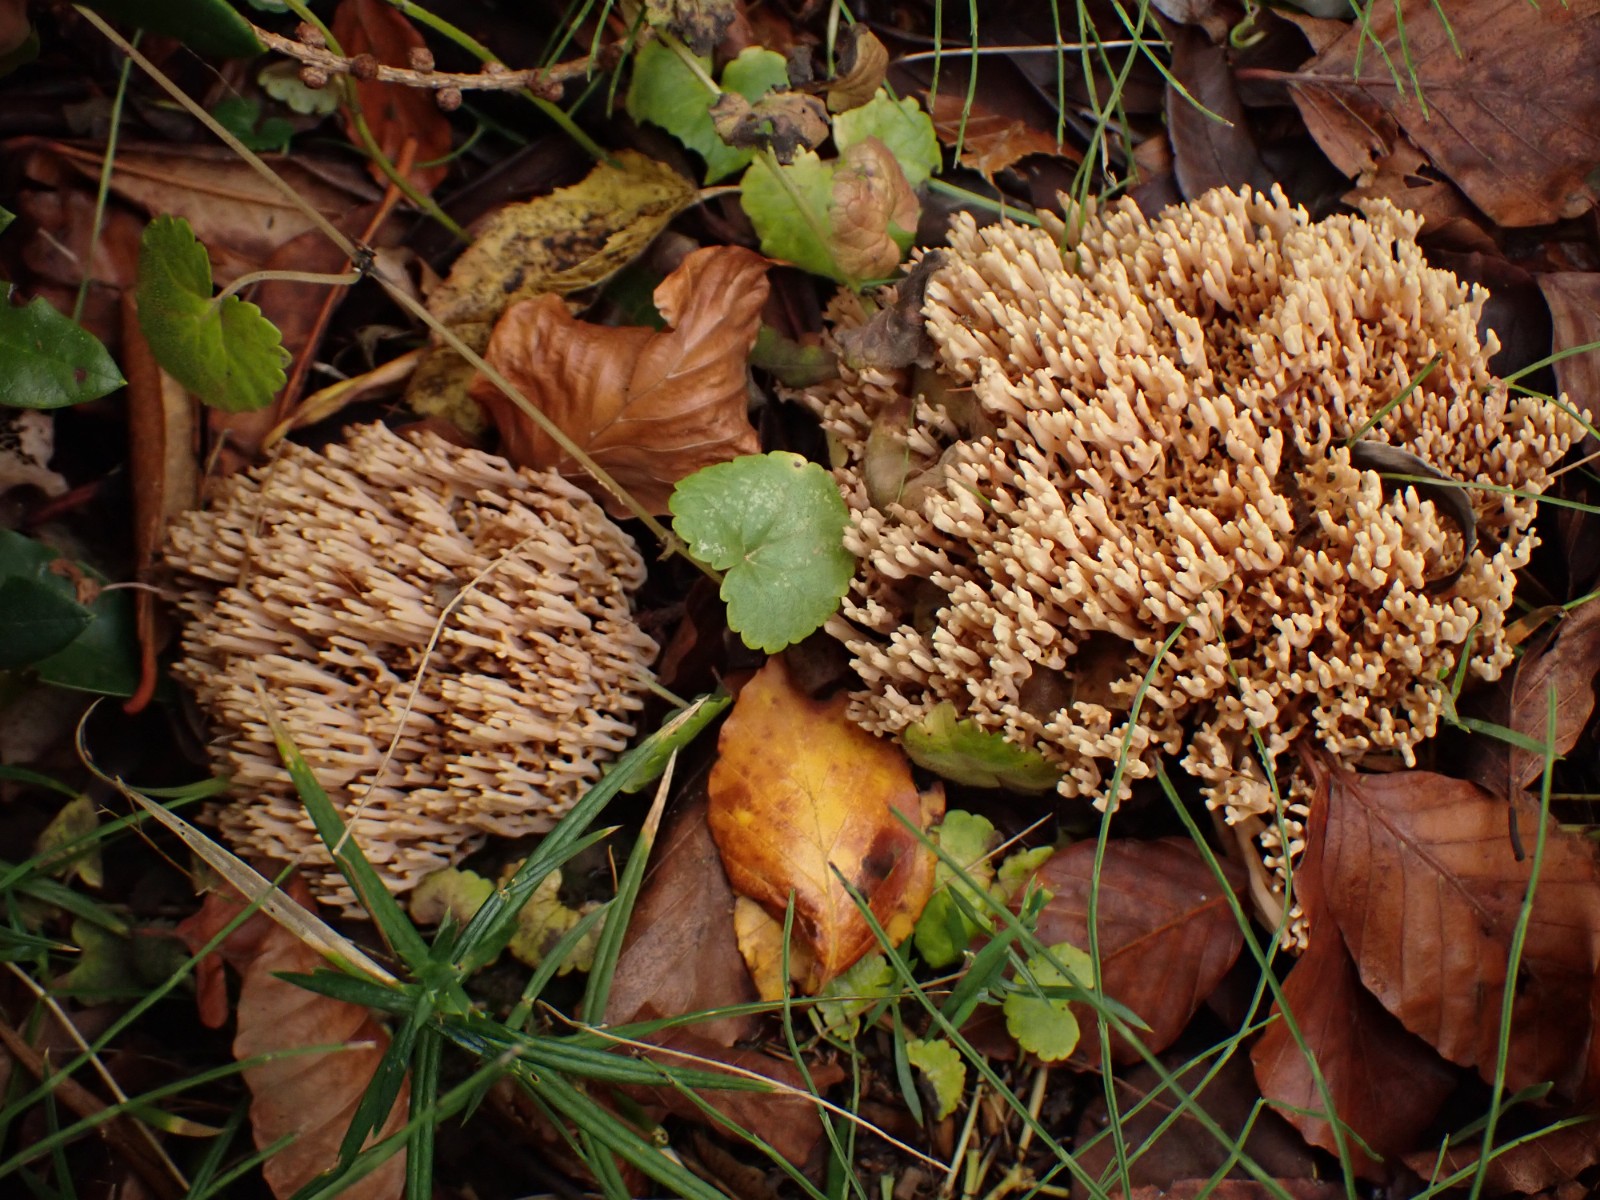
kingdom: Fungi
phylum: Basidiomycota
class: Agaricomycetes
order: Gomphales
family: Gomphaceae
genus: Ramaria
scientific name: Ramaria stricta
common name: rank koralsvamp
